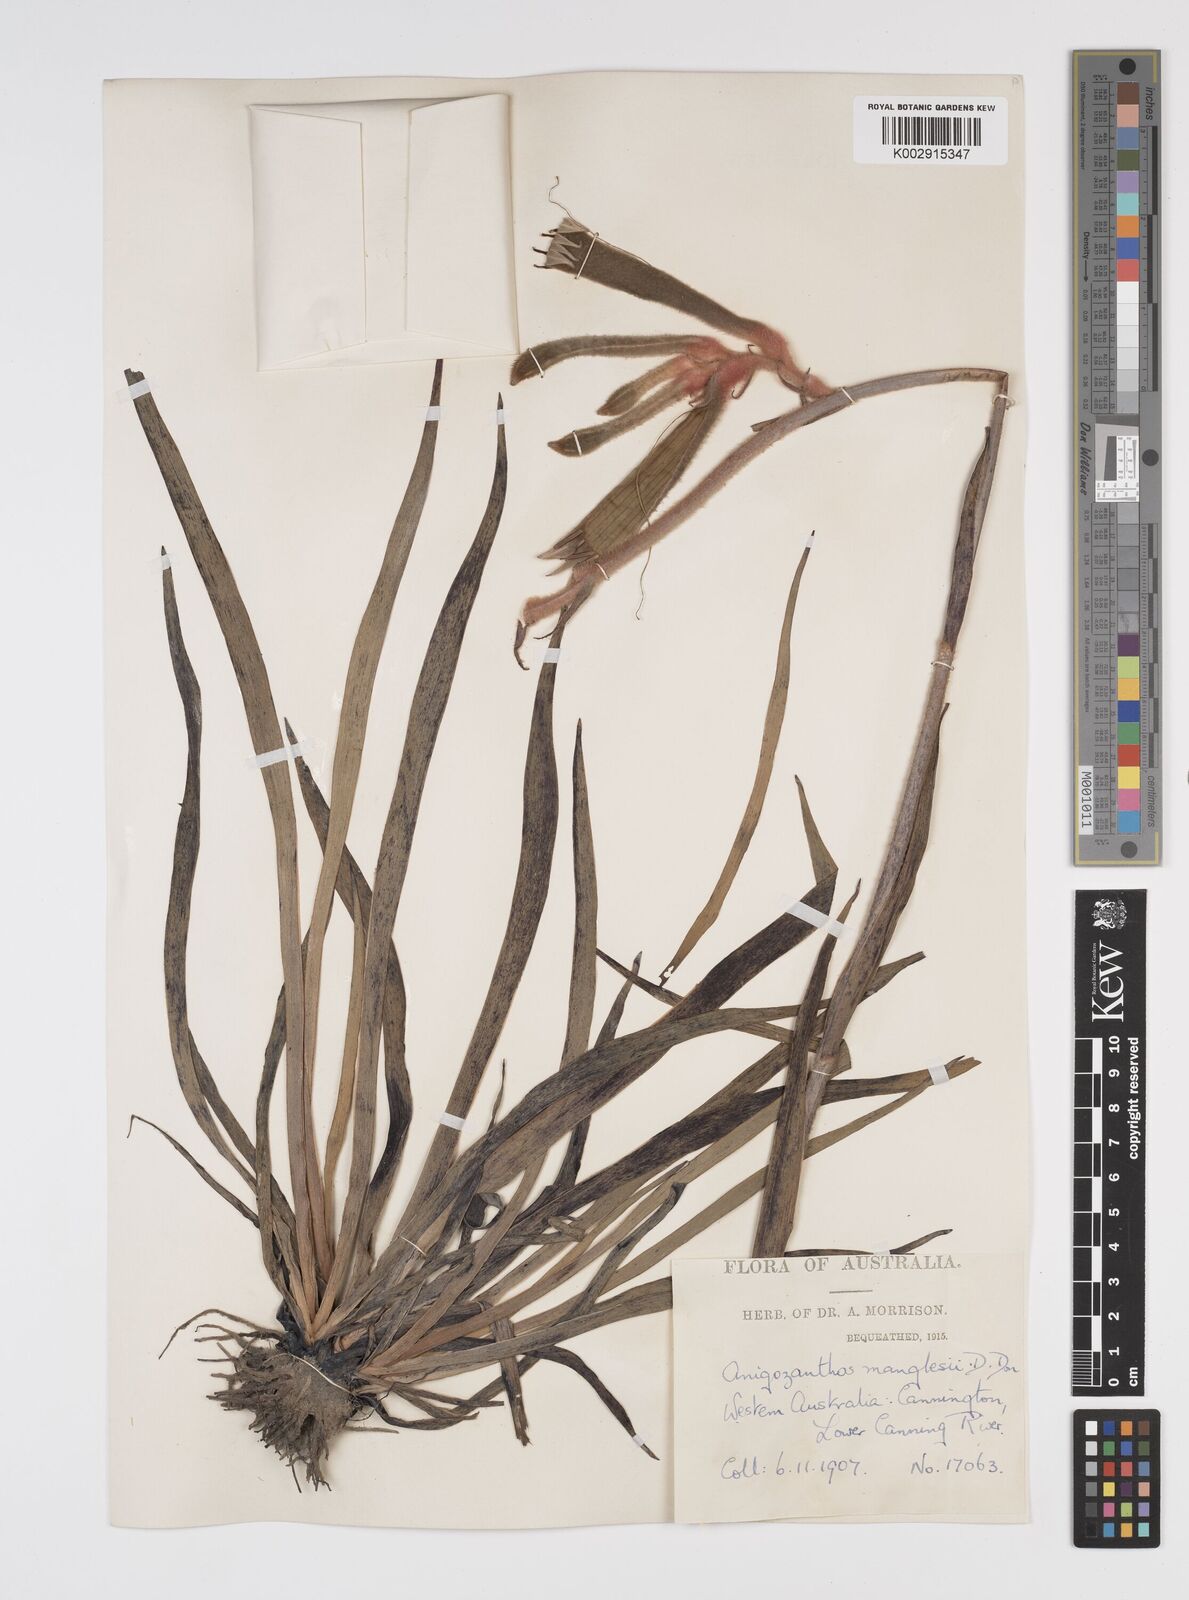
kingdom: Plantae
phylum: Tracheophyta
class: Liliopsida
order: Commelinales
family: Haemodoraceae
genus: Anigozanthos
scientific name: Anigozanthos manglesii
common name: Mangles's kangaroo-paw
